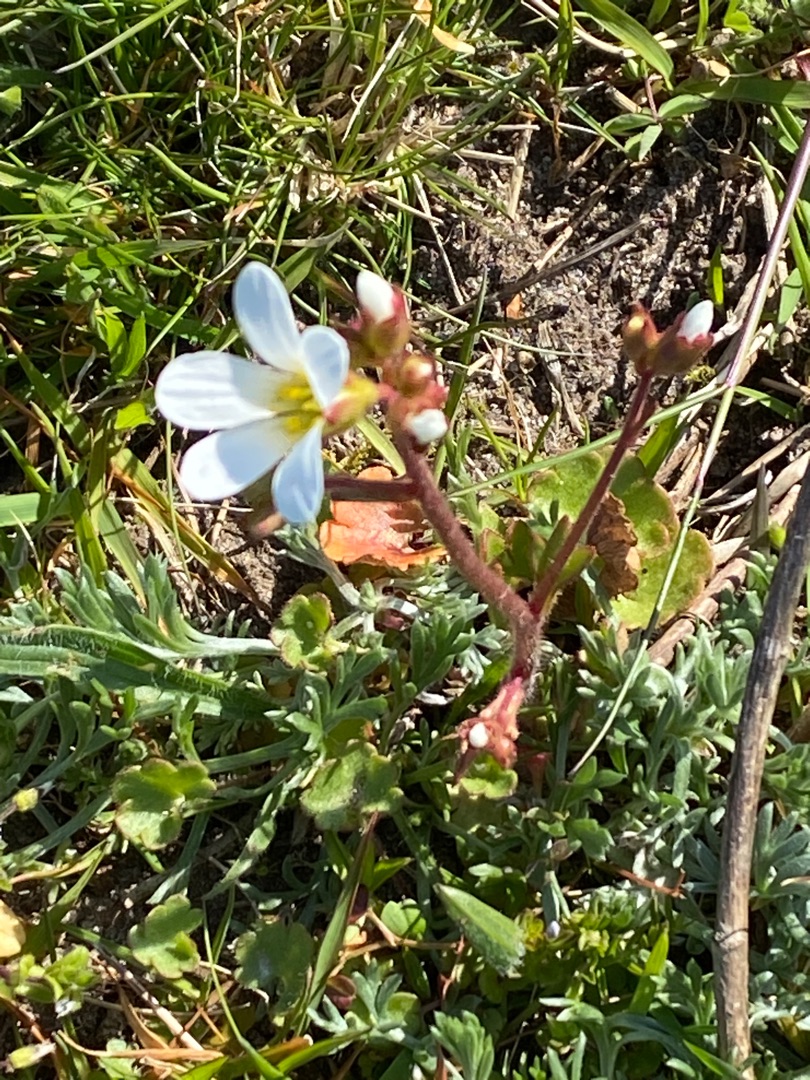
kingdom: Plantae
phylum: Tracheophyta
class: Magnoliopsida
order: Saxifragales
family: Saxifragaceae
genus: Saxifraga
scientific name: Saxifraga granulata
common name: Kornet stenbræk
